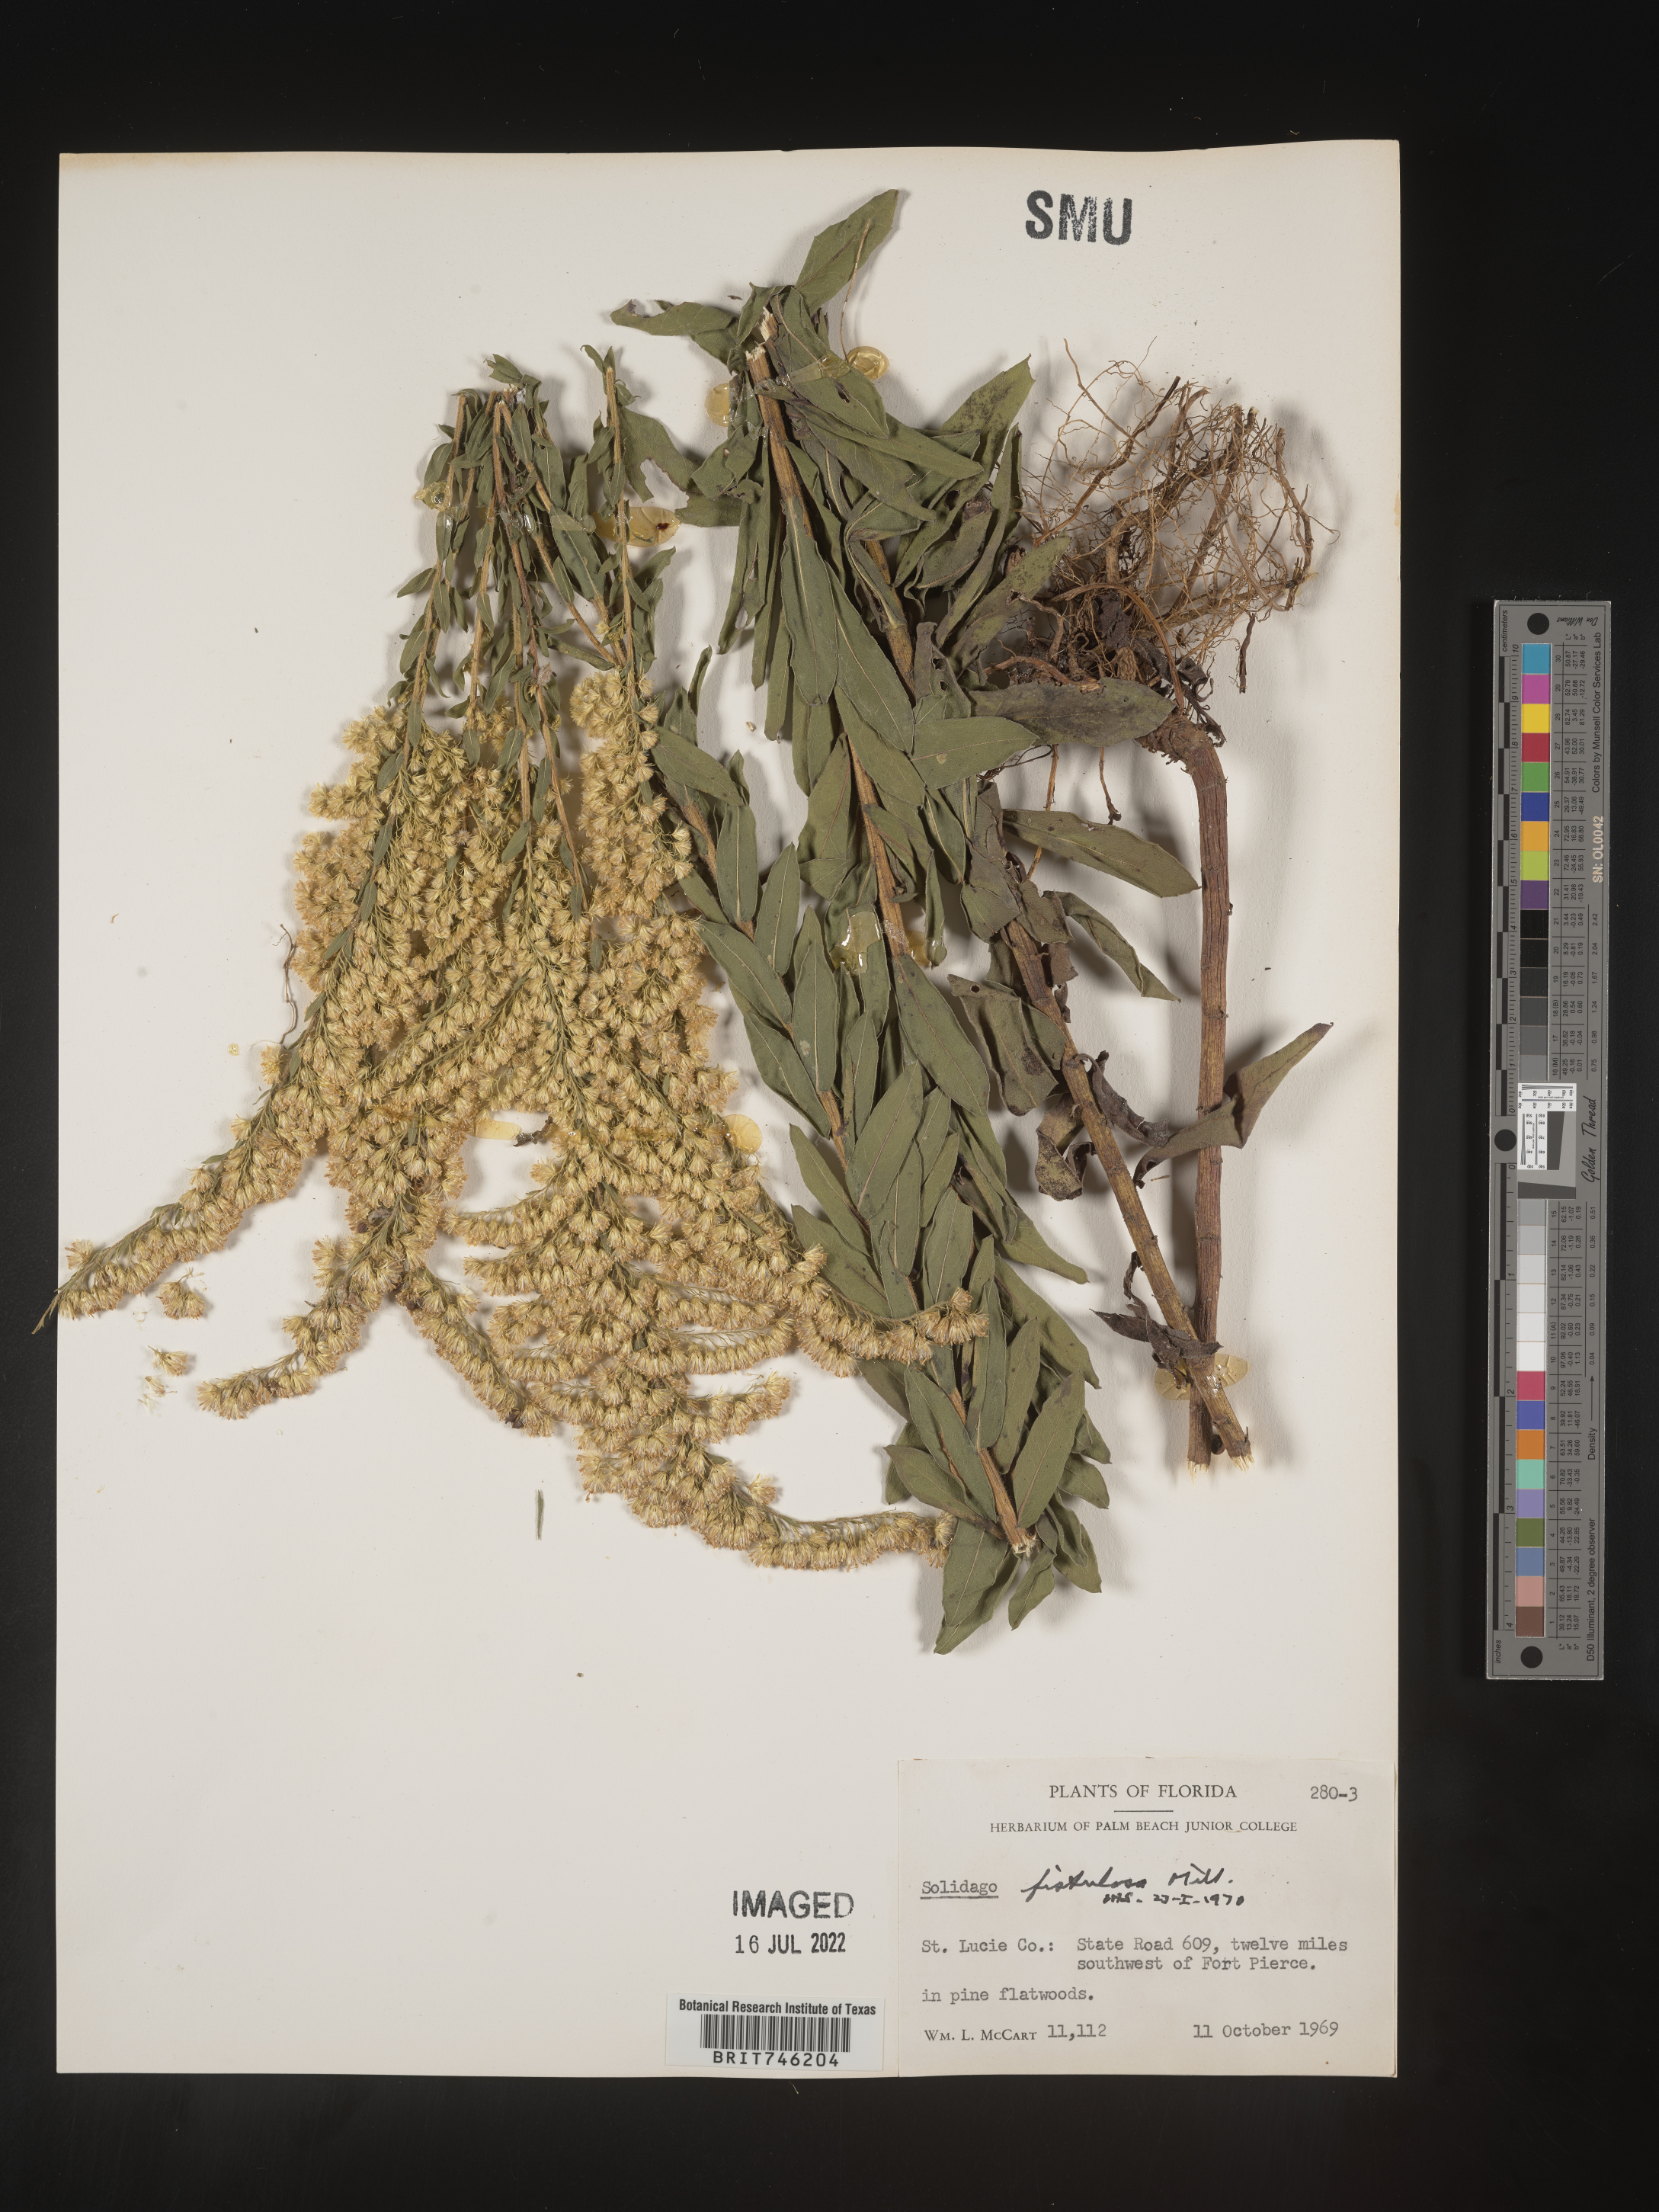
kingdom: Plantae
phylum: Tracheophyta
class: Magnoliopsida
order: Asterales
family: Asteraceae
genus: Solidago
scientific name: Solidago fistulosa
